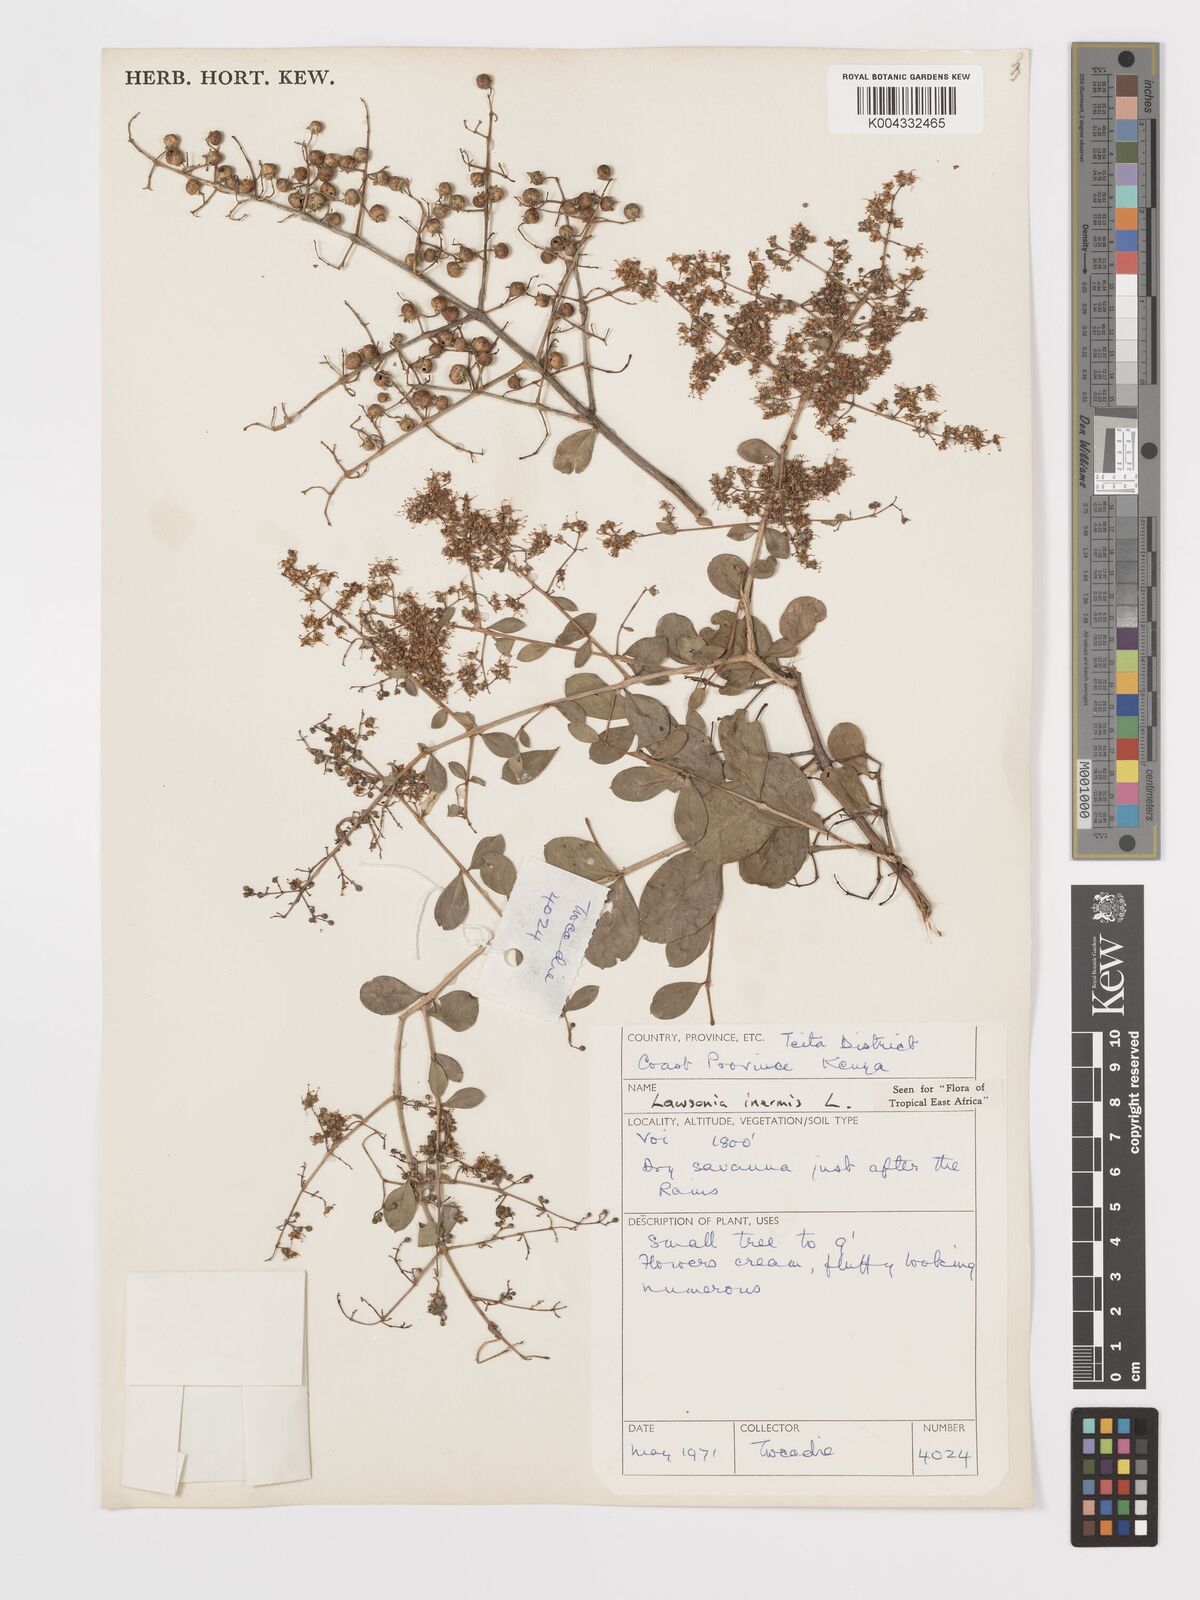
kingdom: Plantae
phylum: Tracheophyta
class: Magnoliopsida
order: Myrtales
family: Lythraceae
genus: Lawsonia
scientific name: Lawsonia inermis
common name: Henna
